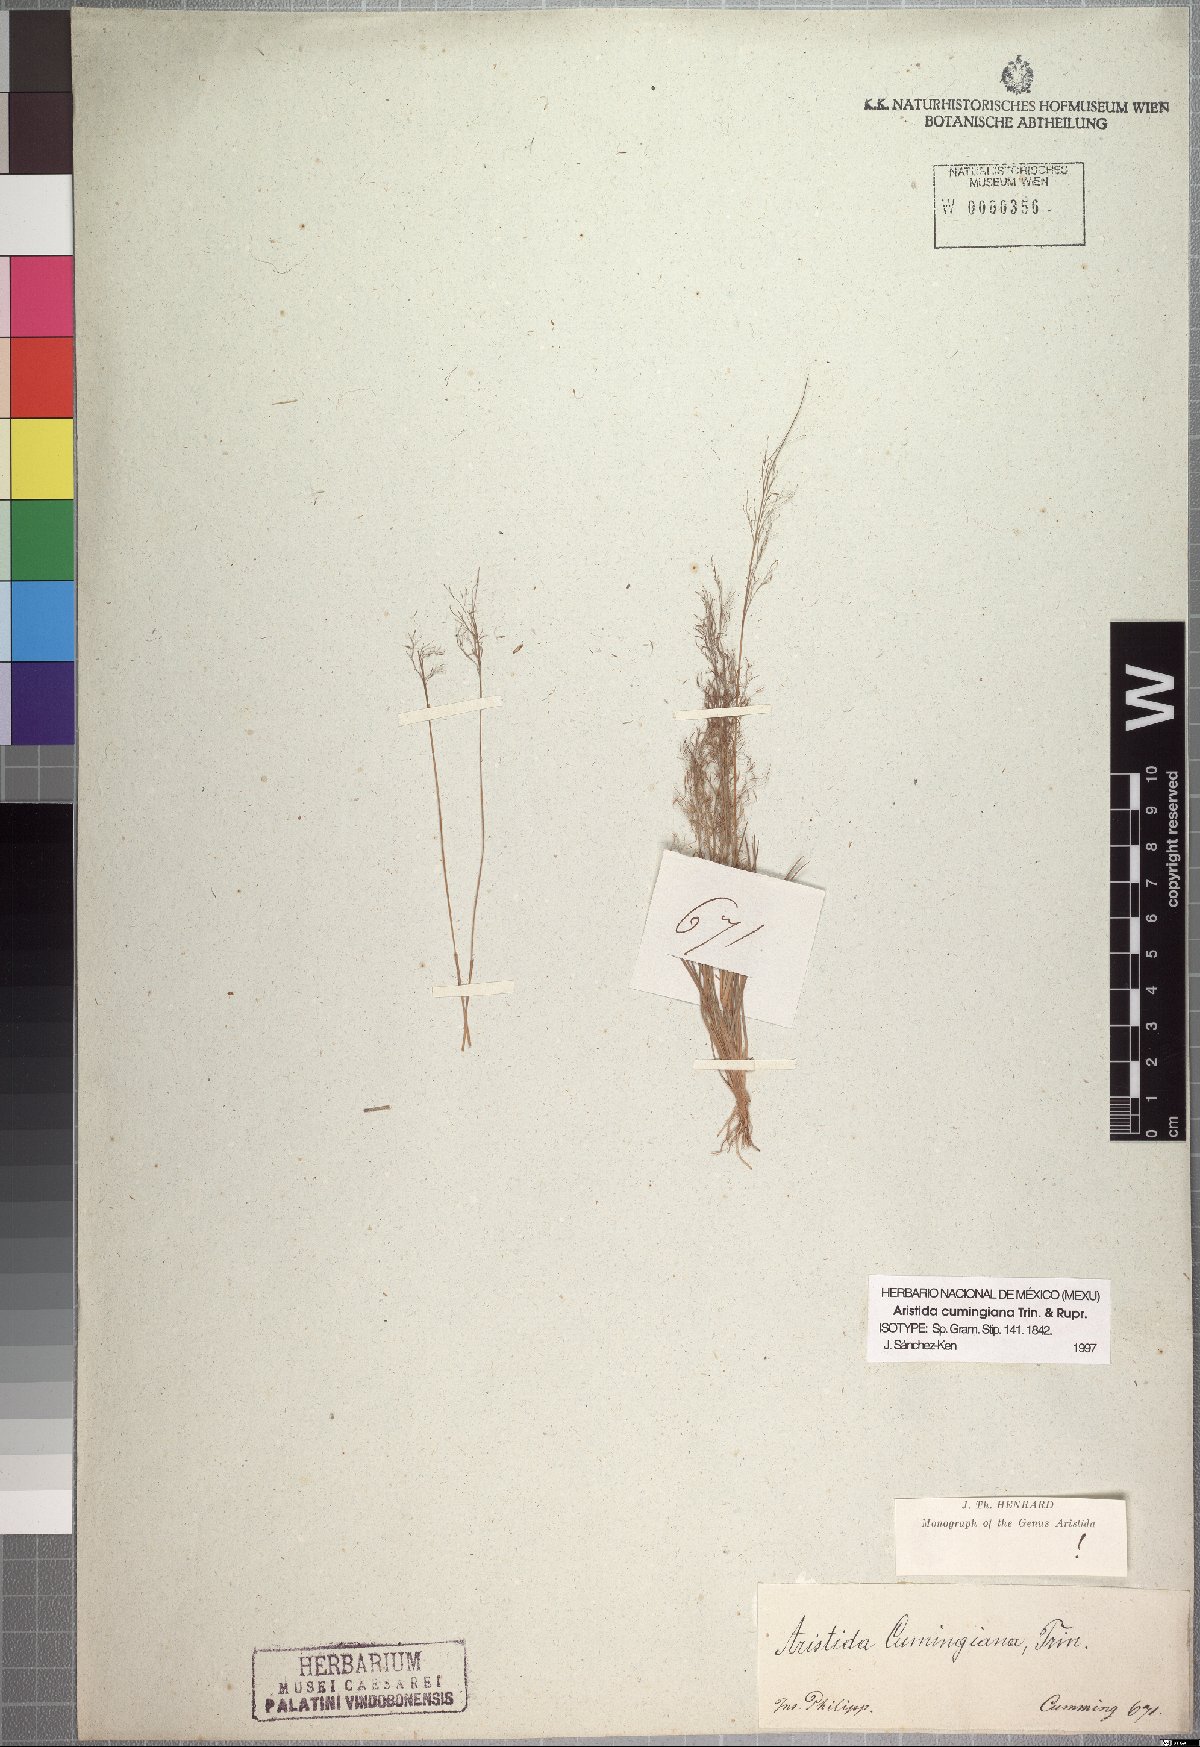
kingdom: Plantae
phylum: Tracheophyta
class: Liliopsida
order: Poales
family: Poaceae
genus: Aristida
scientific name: Aristida cumingiana
